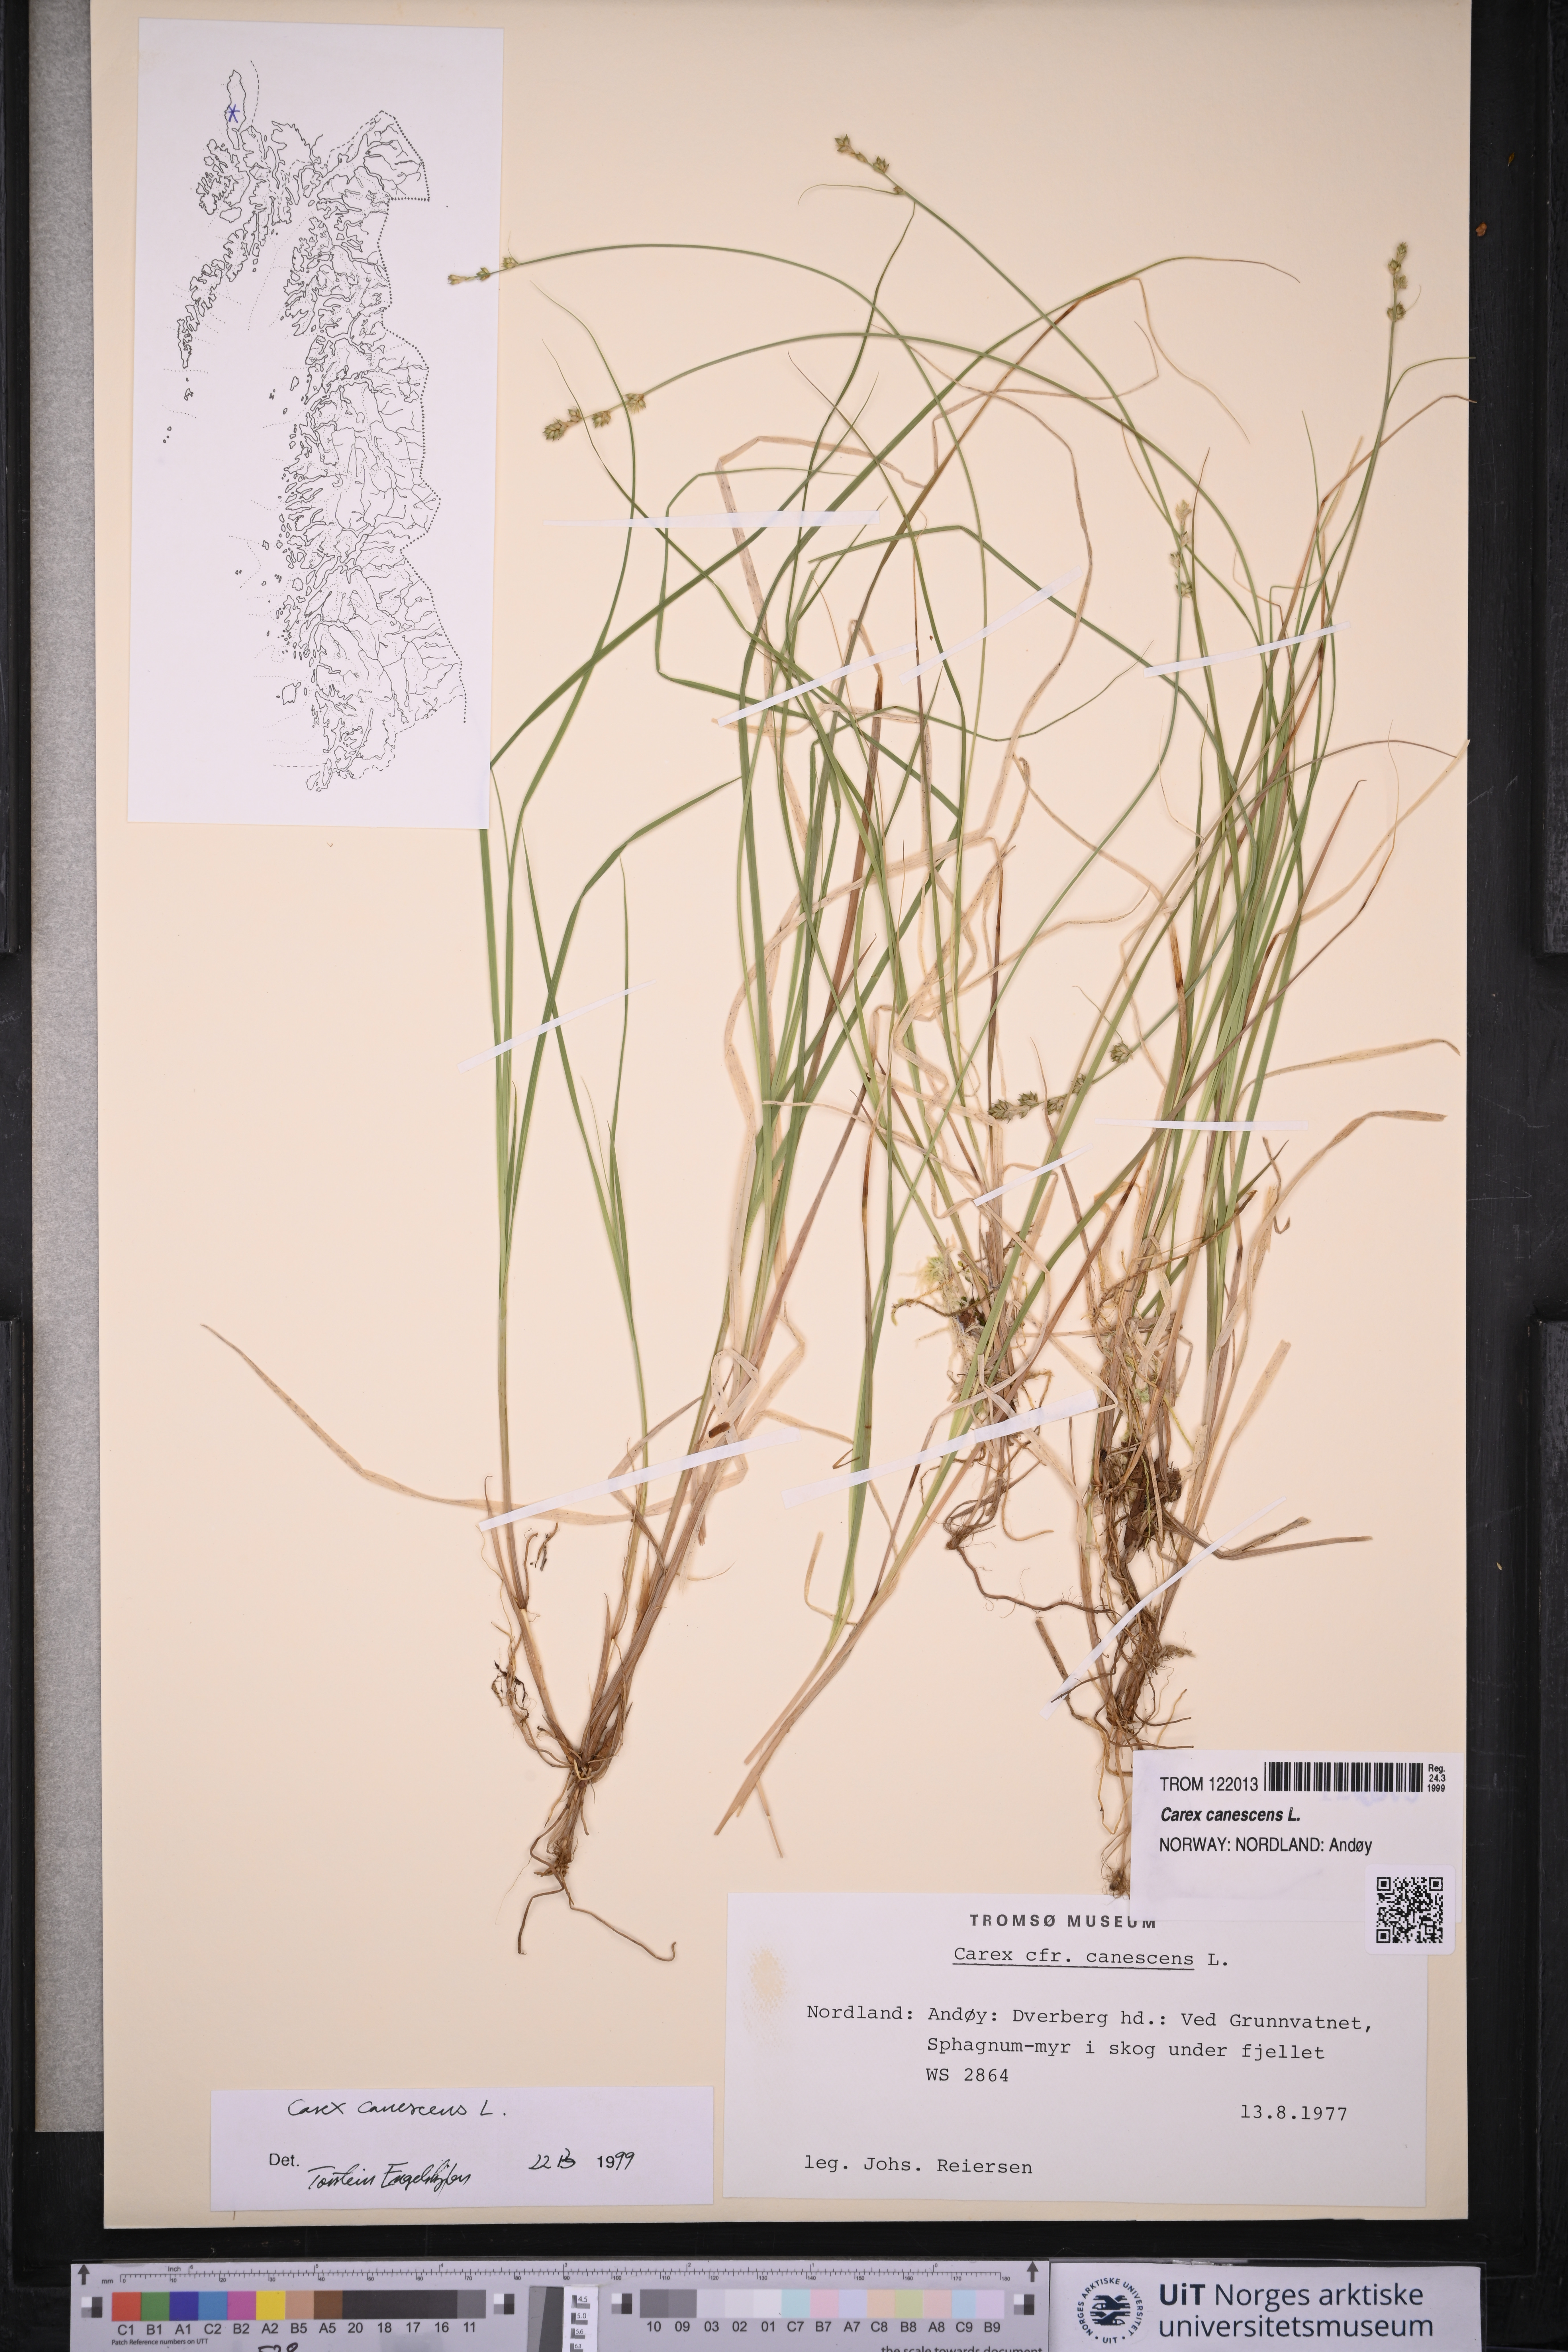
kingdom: Plantae
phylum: Tracheophyta
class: Liliopsida
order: Poales
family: Cyperaceae
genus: Carex
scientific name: Carex canescens
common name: White sedge
